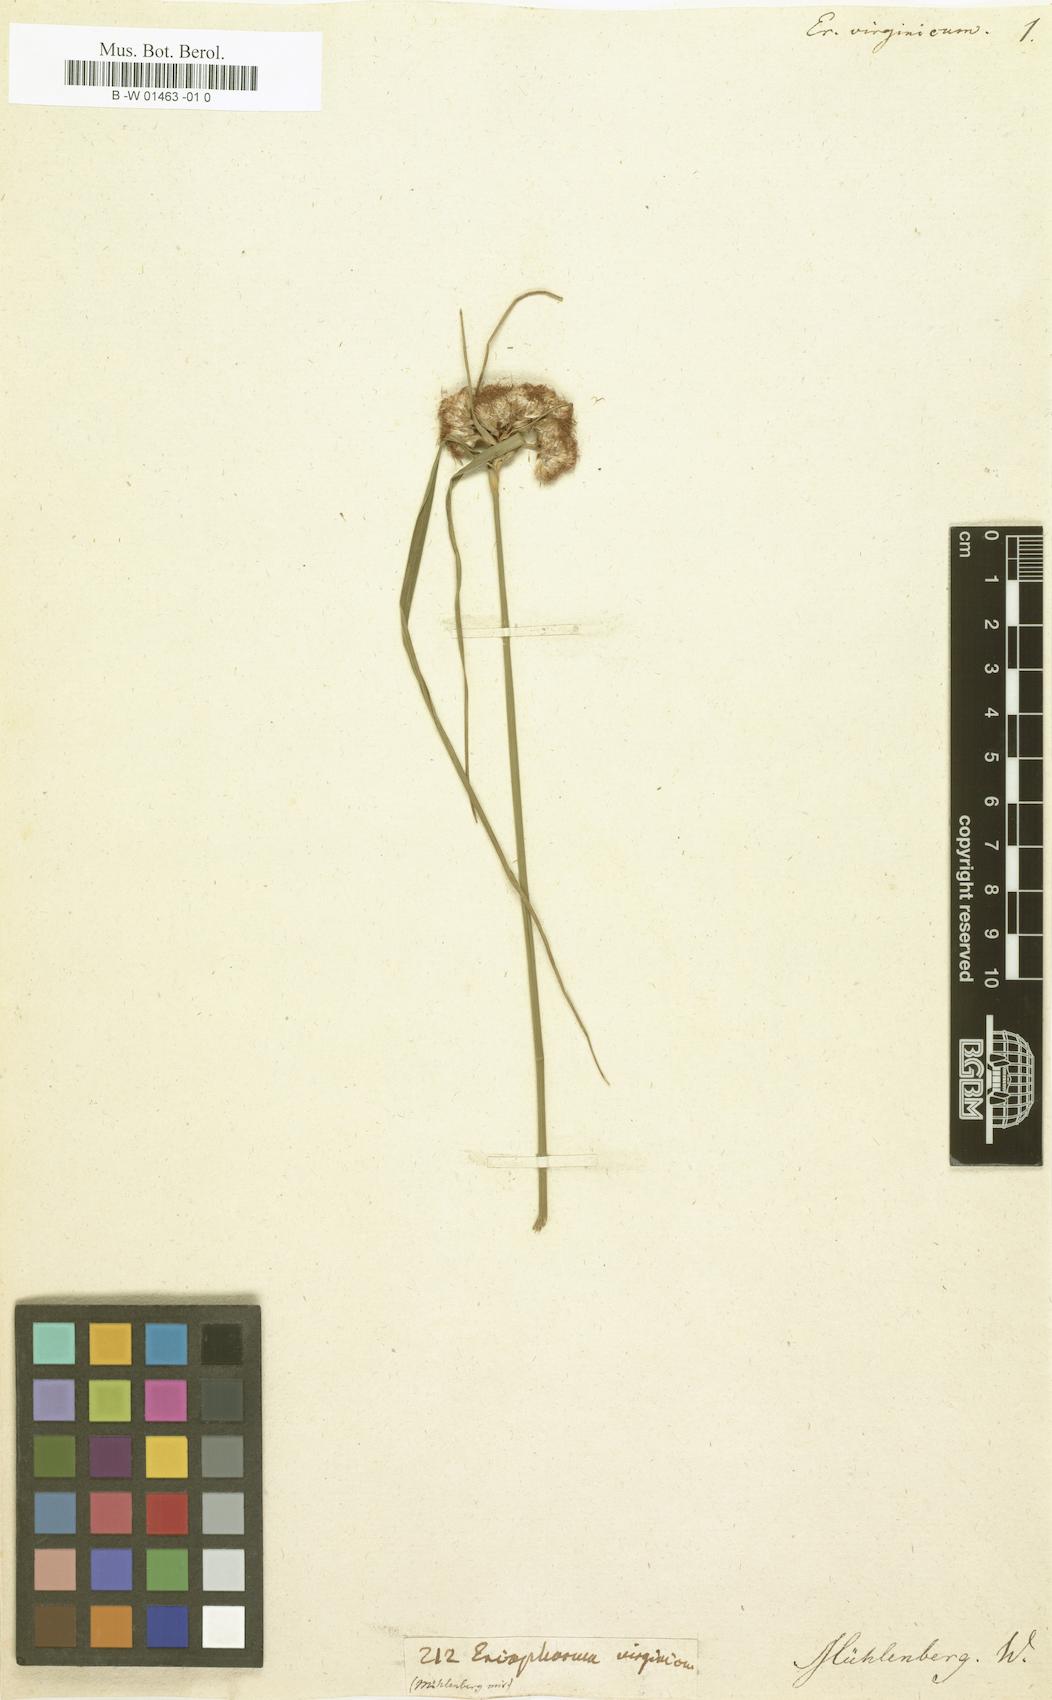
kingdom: Plantae
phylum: Tracheophyta
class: Liliopsida
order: Poales
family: Cyperaceae
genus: Eriophorum
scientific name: Eriophorum virginicum
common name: Tawny cottongrass
